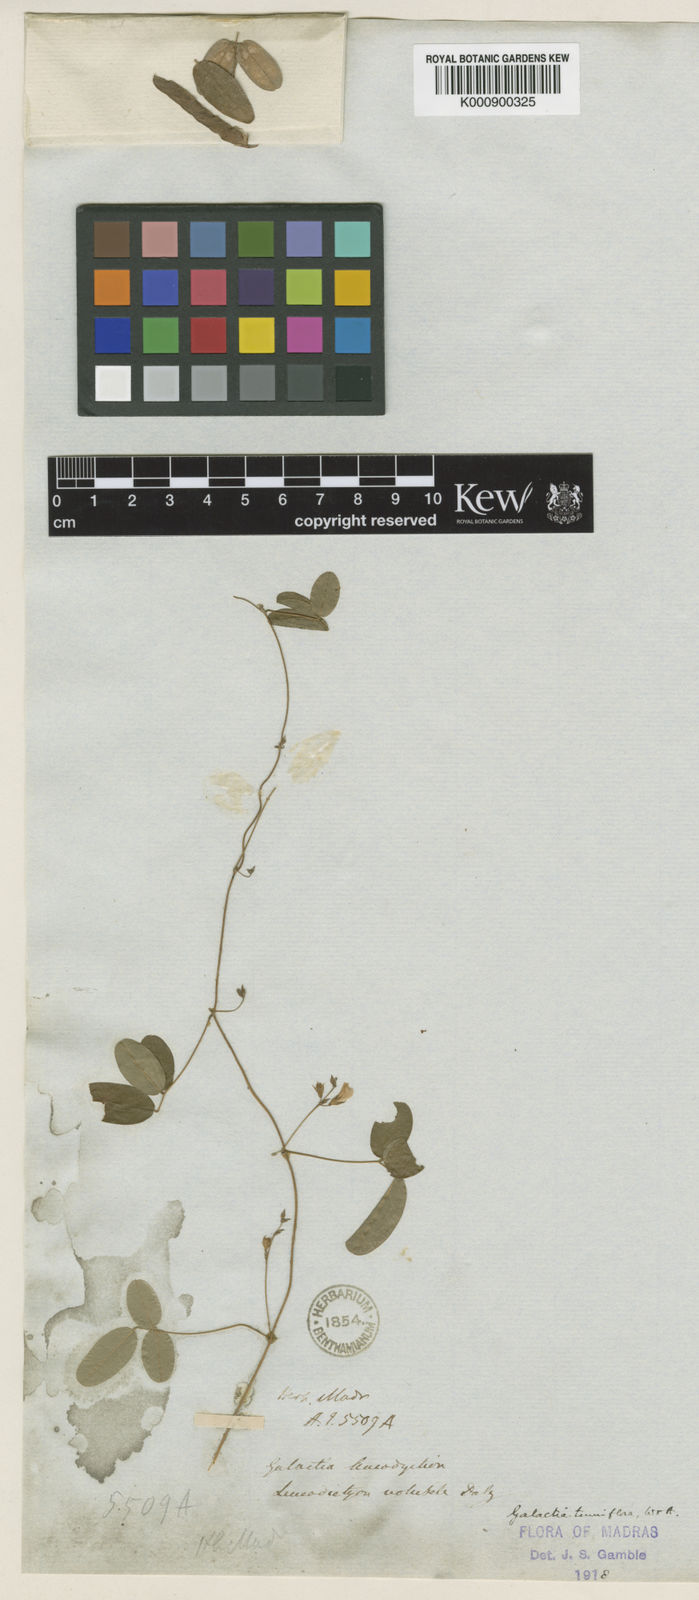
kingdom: Plantae
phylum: Tracheophyta
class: Magnoliopsida
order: Fabales
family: Fabaceae
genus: Galactia
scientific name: Galactia
